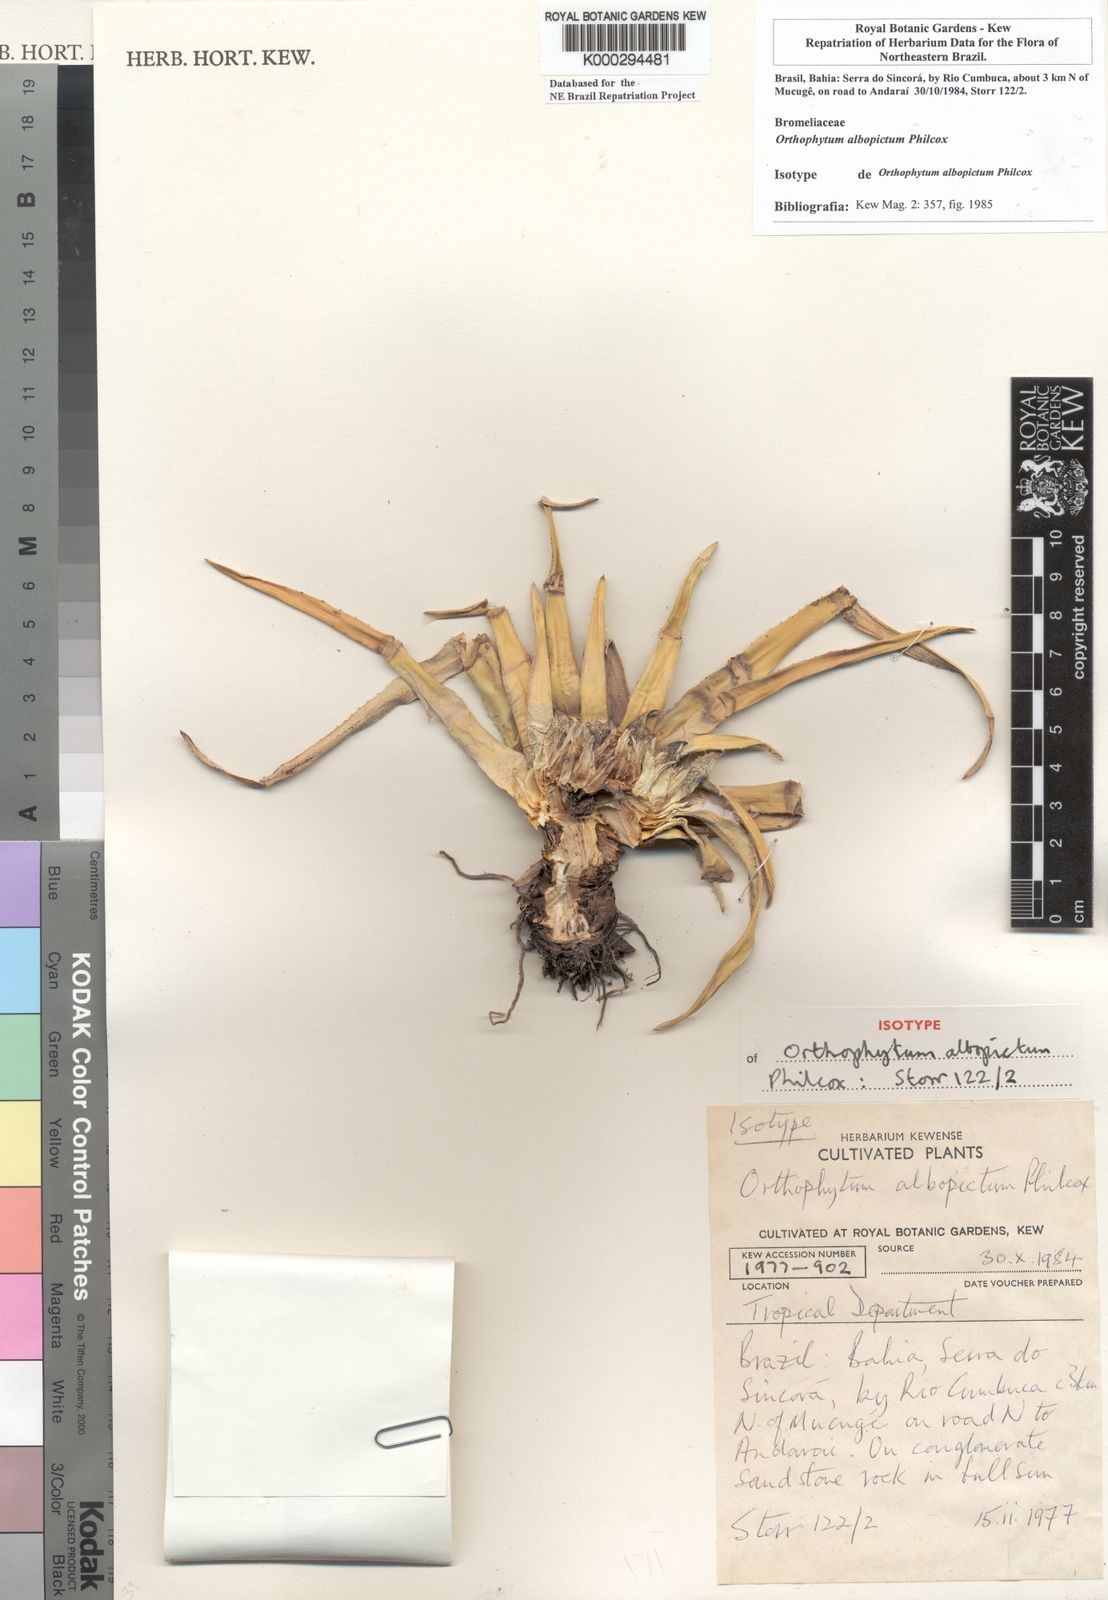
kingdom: Plantae
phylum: Tracheophyta
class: Liliopsida
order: Poales
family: Bromeliaceae
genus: Sincoraea
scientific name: Sincoraea albopicta
